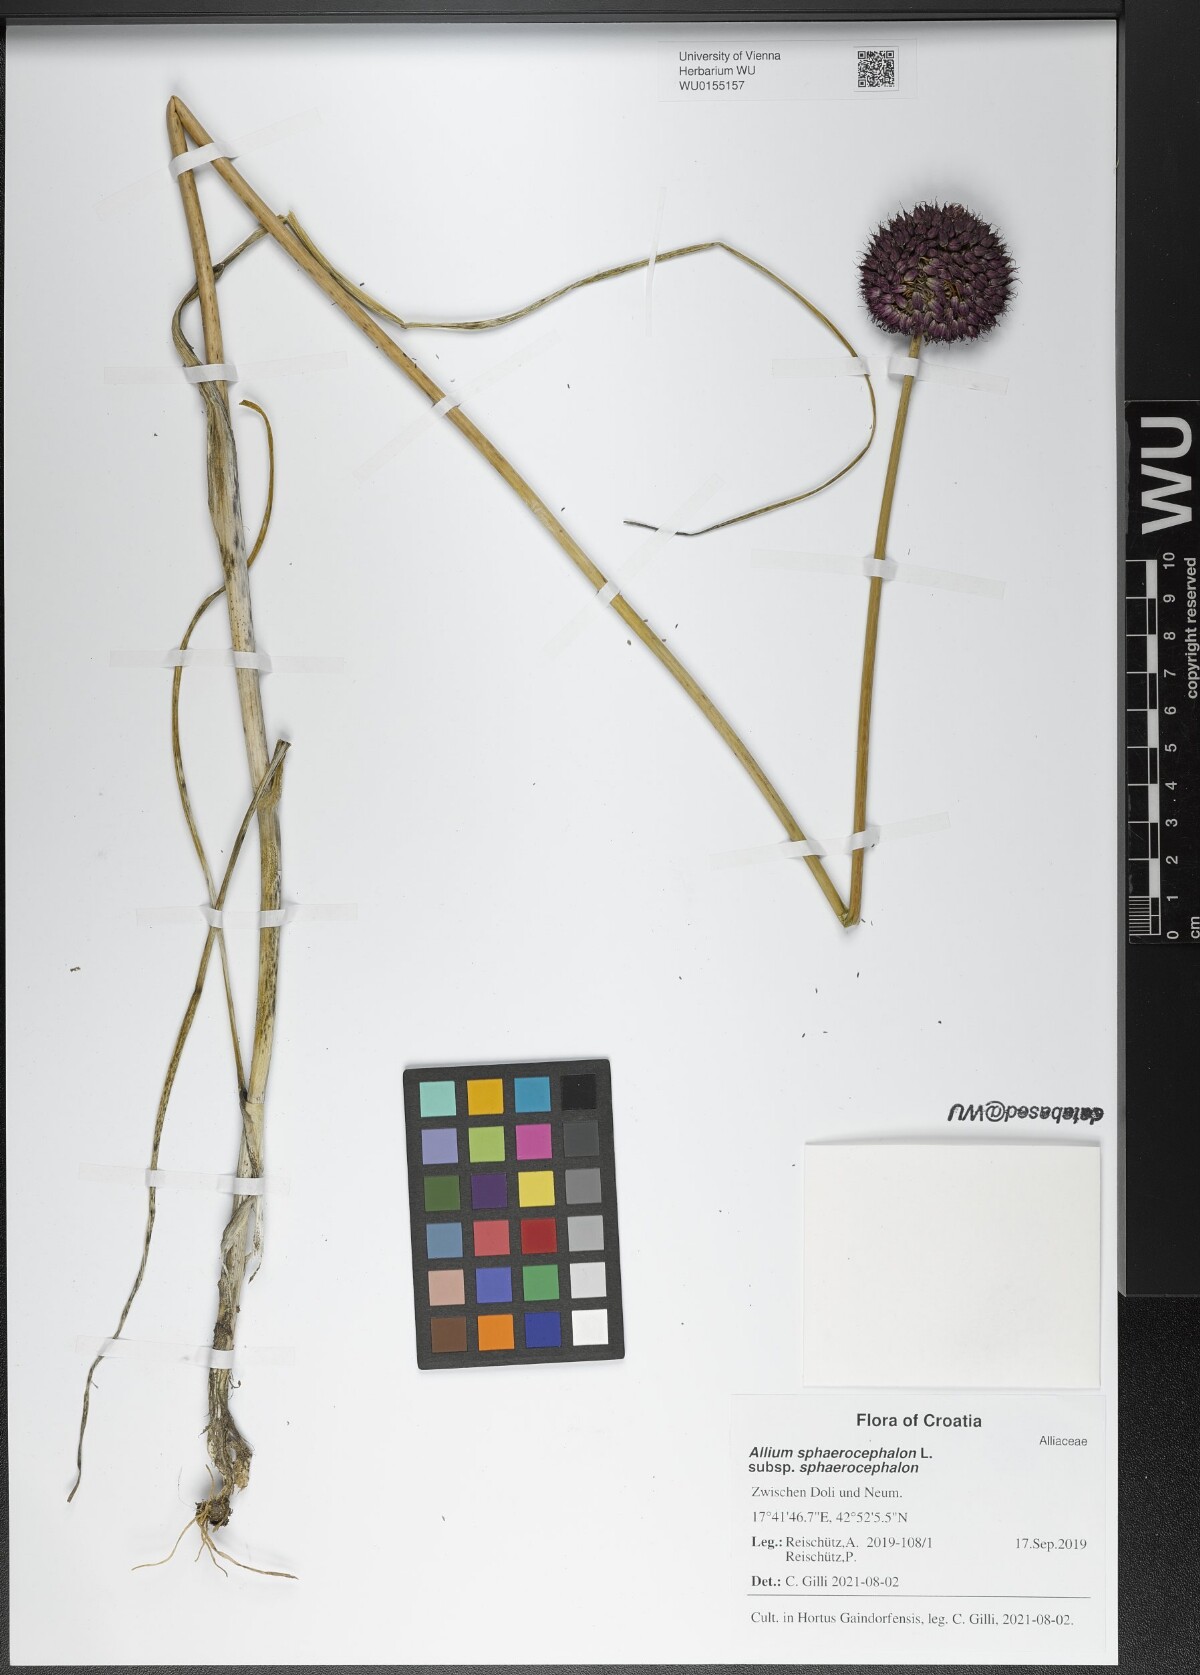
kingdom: Plantae
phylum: Tracheophyta
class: Liliopsida
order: Asparagales
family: Amaryllidaceae
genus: Allium
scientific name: Allium sphaerocephalon
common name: Round-headed leek
